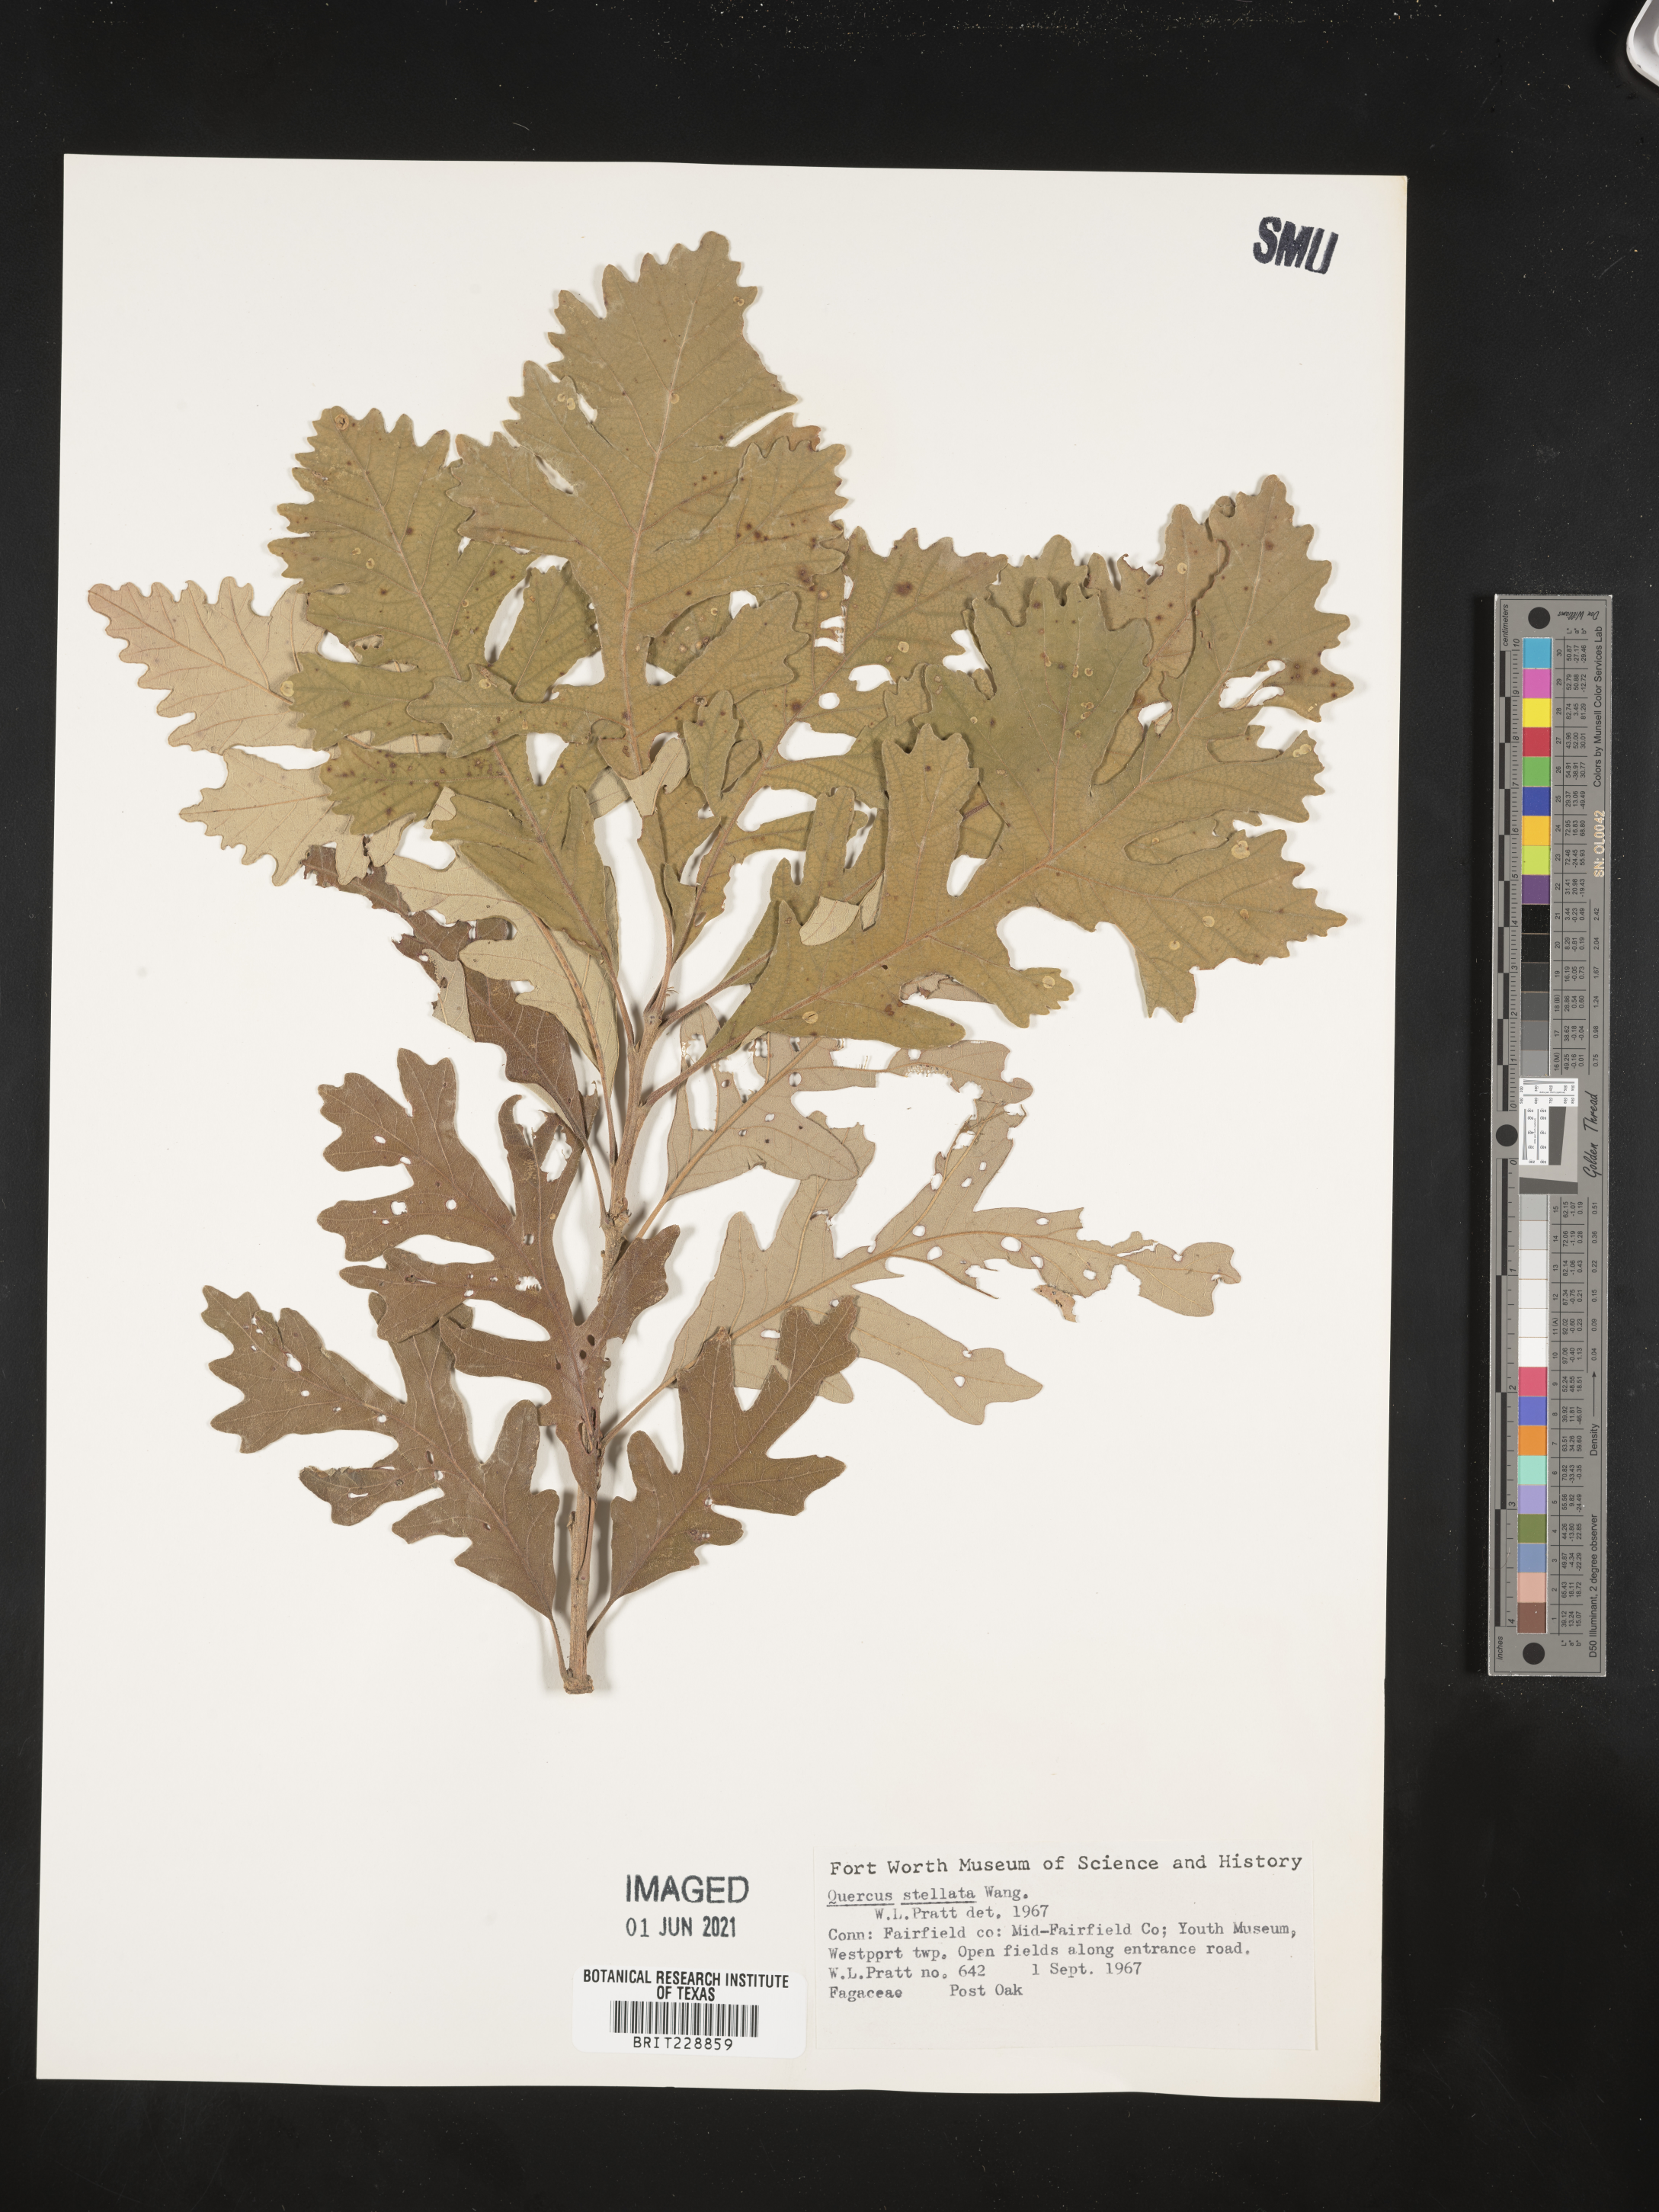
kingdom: Plantae
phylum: Tracheophyta
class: Magnoliopsida
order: Fagales
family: Fagaceae
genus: Quercus
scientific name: Quercus stellata
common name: Post oak
